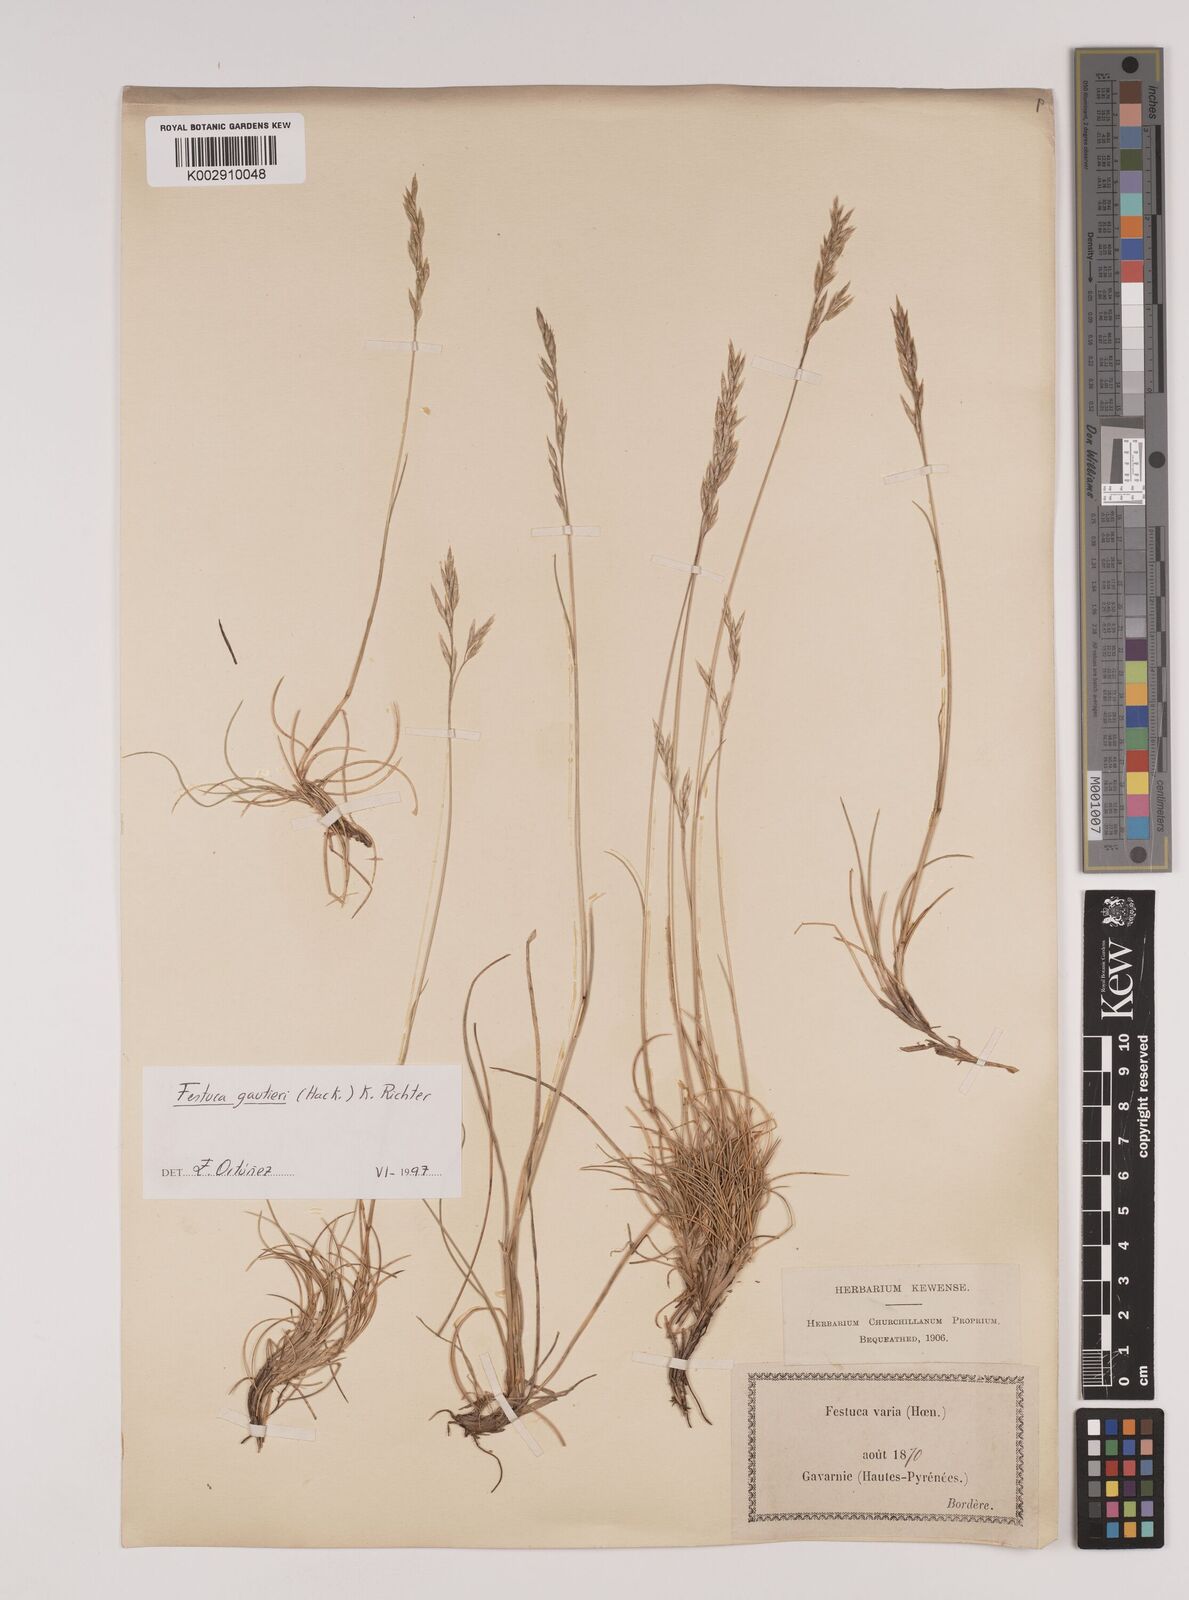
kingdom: Plantae
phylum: Tracheophyta
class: Liliopsida
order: Poales
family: Poaceae
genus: Festuca
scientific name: Festuca gautieri
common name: Spiky fescue
